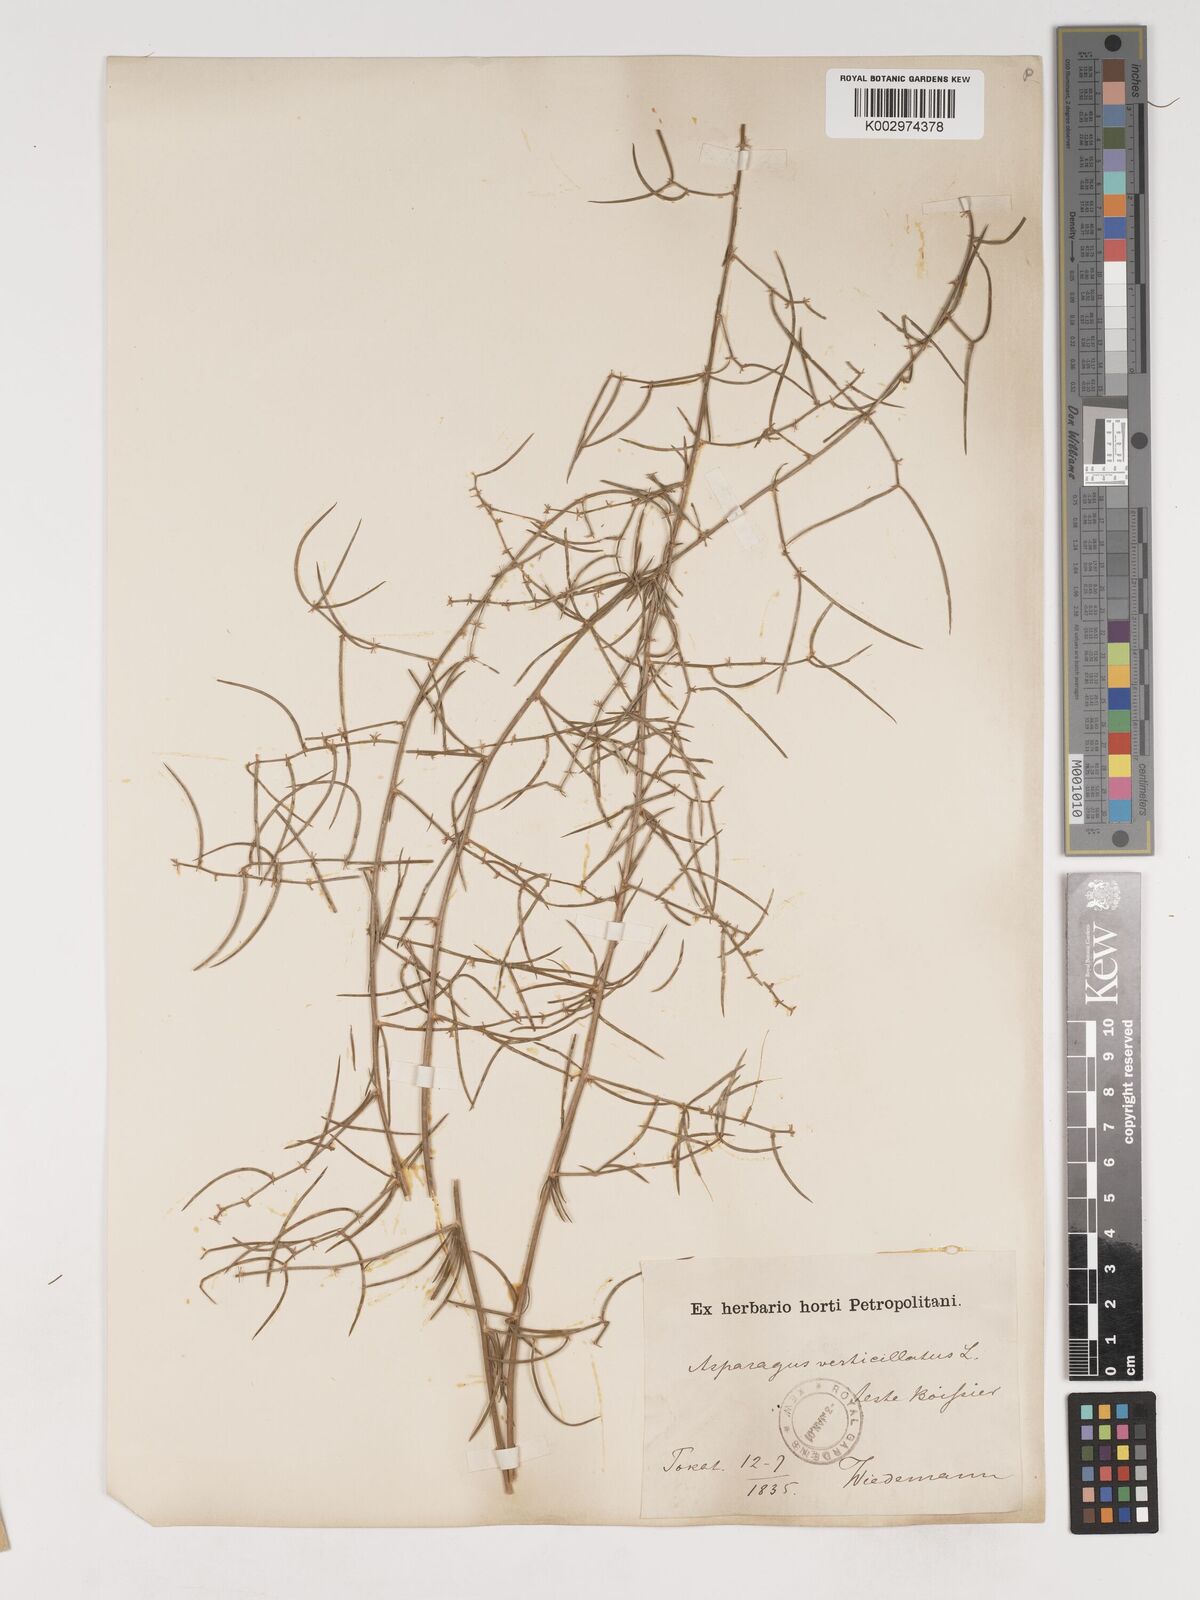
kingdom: Plantae
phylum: Tracheophyta
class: Liliopsida
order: Asparagales
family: Asparagaceae
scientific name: Asparagaceae
